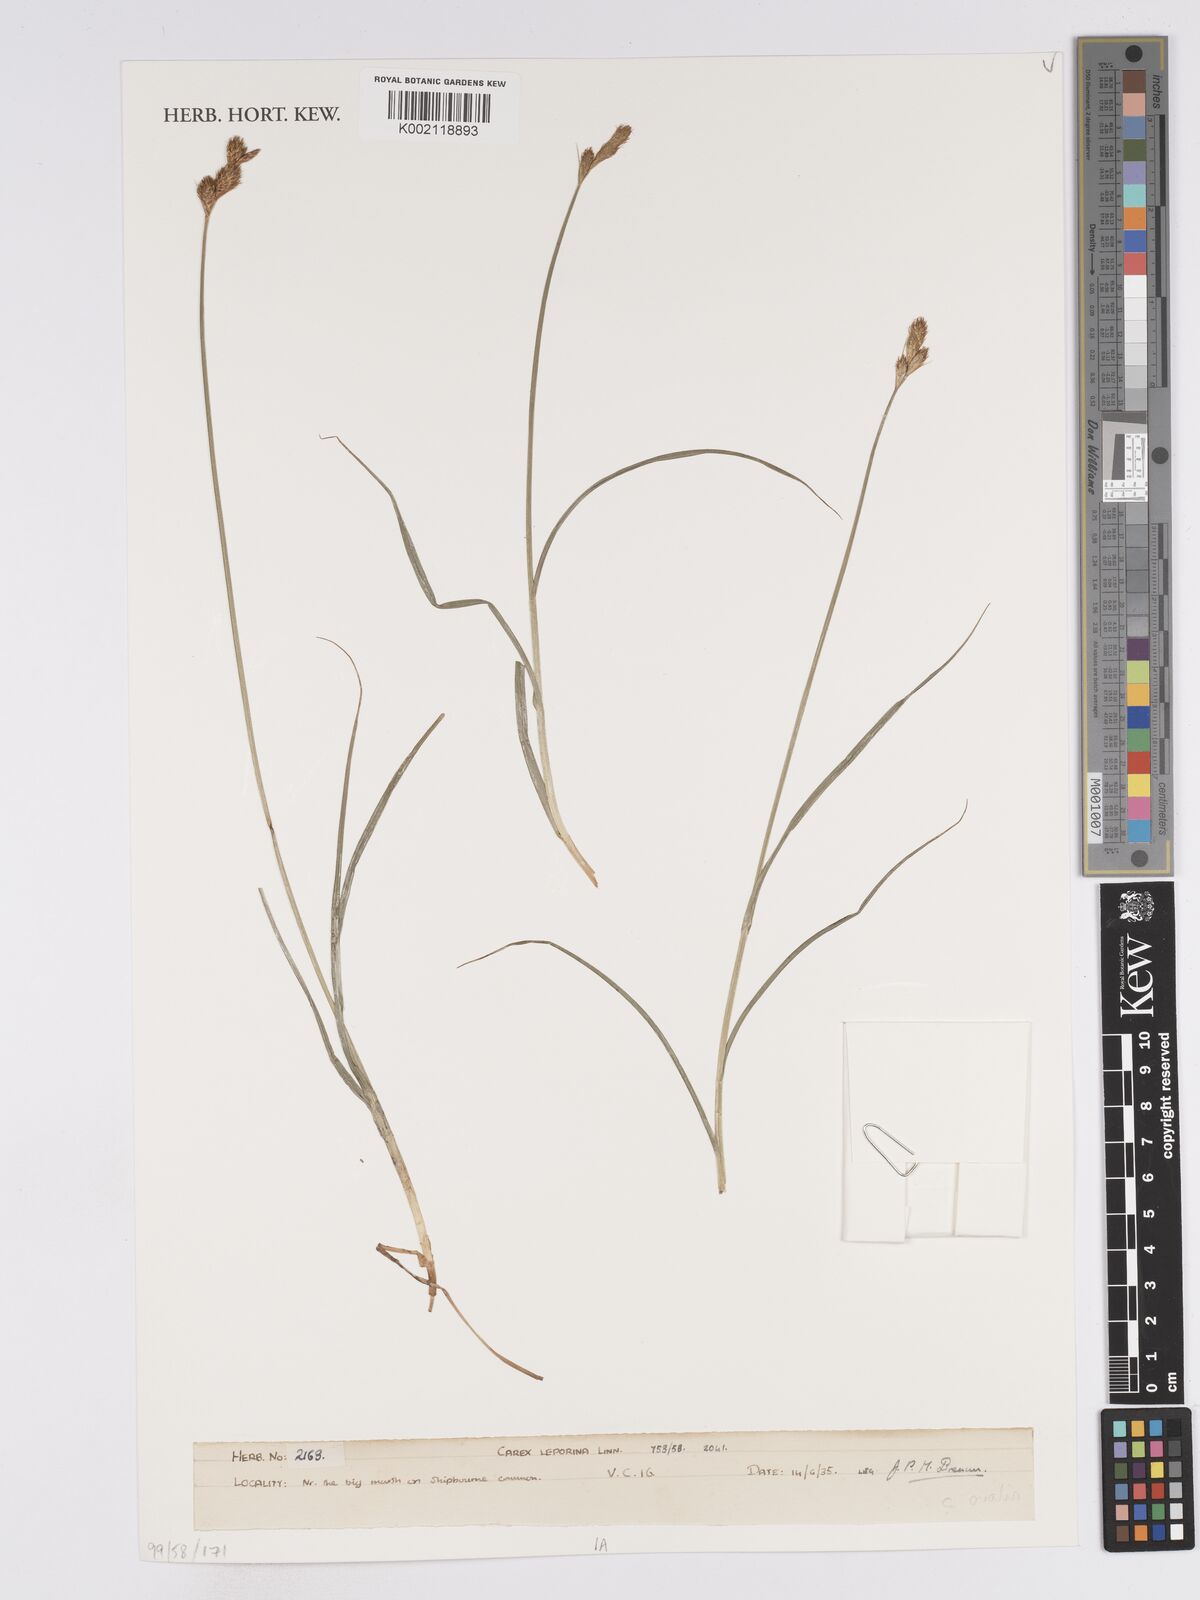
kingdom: Plantae
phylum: Tracheophyta
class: Liliopsida
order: Poales
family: Cyperaceae
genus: Carex
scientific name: Carex leporina
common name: Oval sedge
